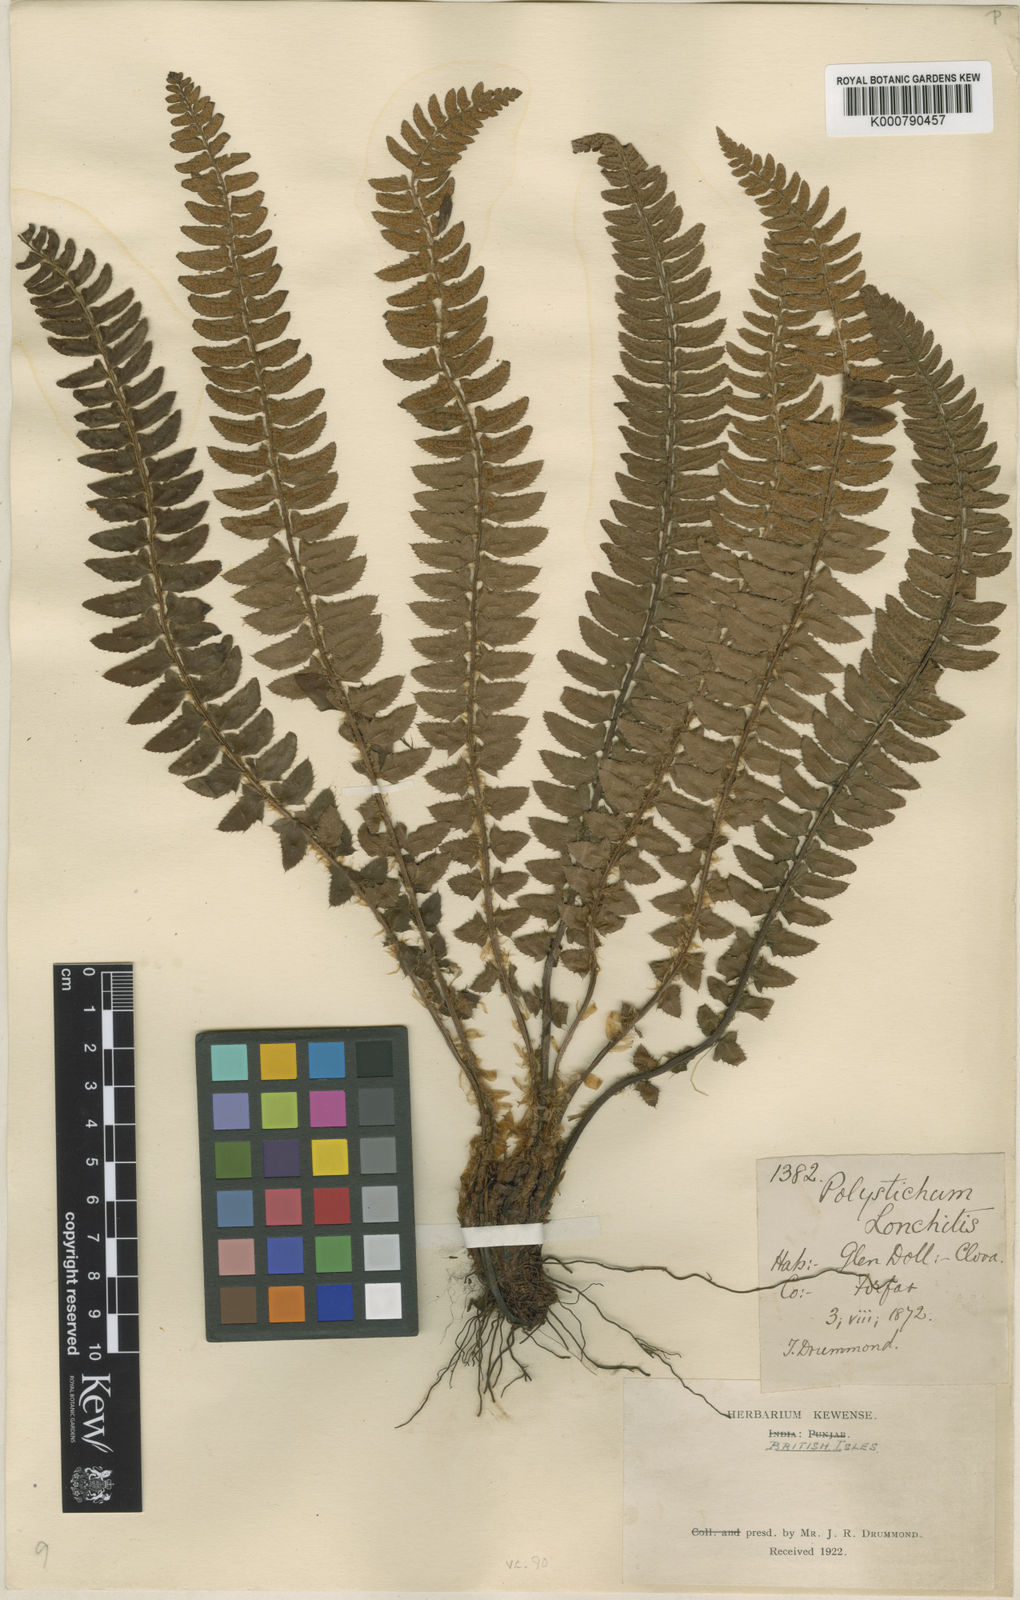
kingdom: Plantae
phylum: Tracheophyta
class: Polypodiopsida
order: Polypodiales
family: Dryopteridaceae
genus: Polystichum
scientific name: Polystichum
